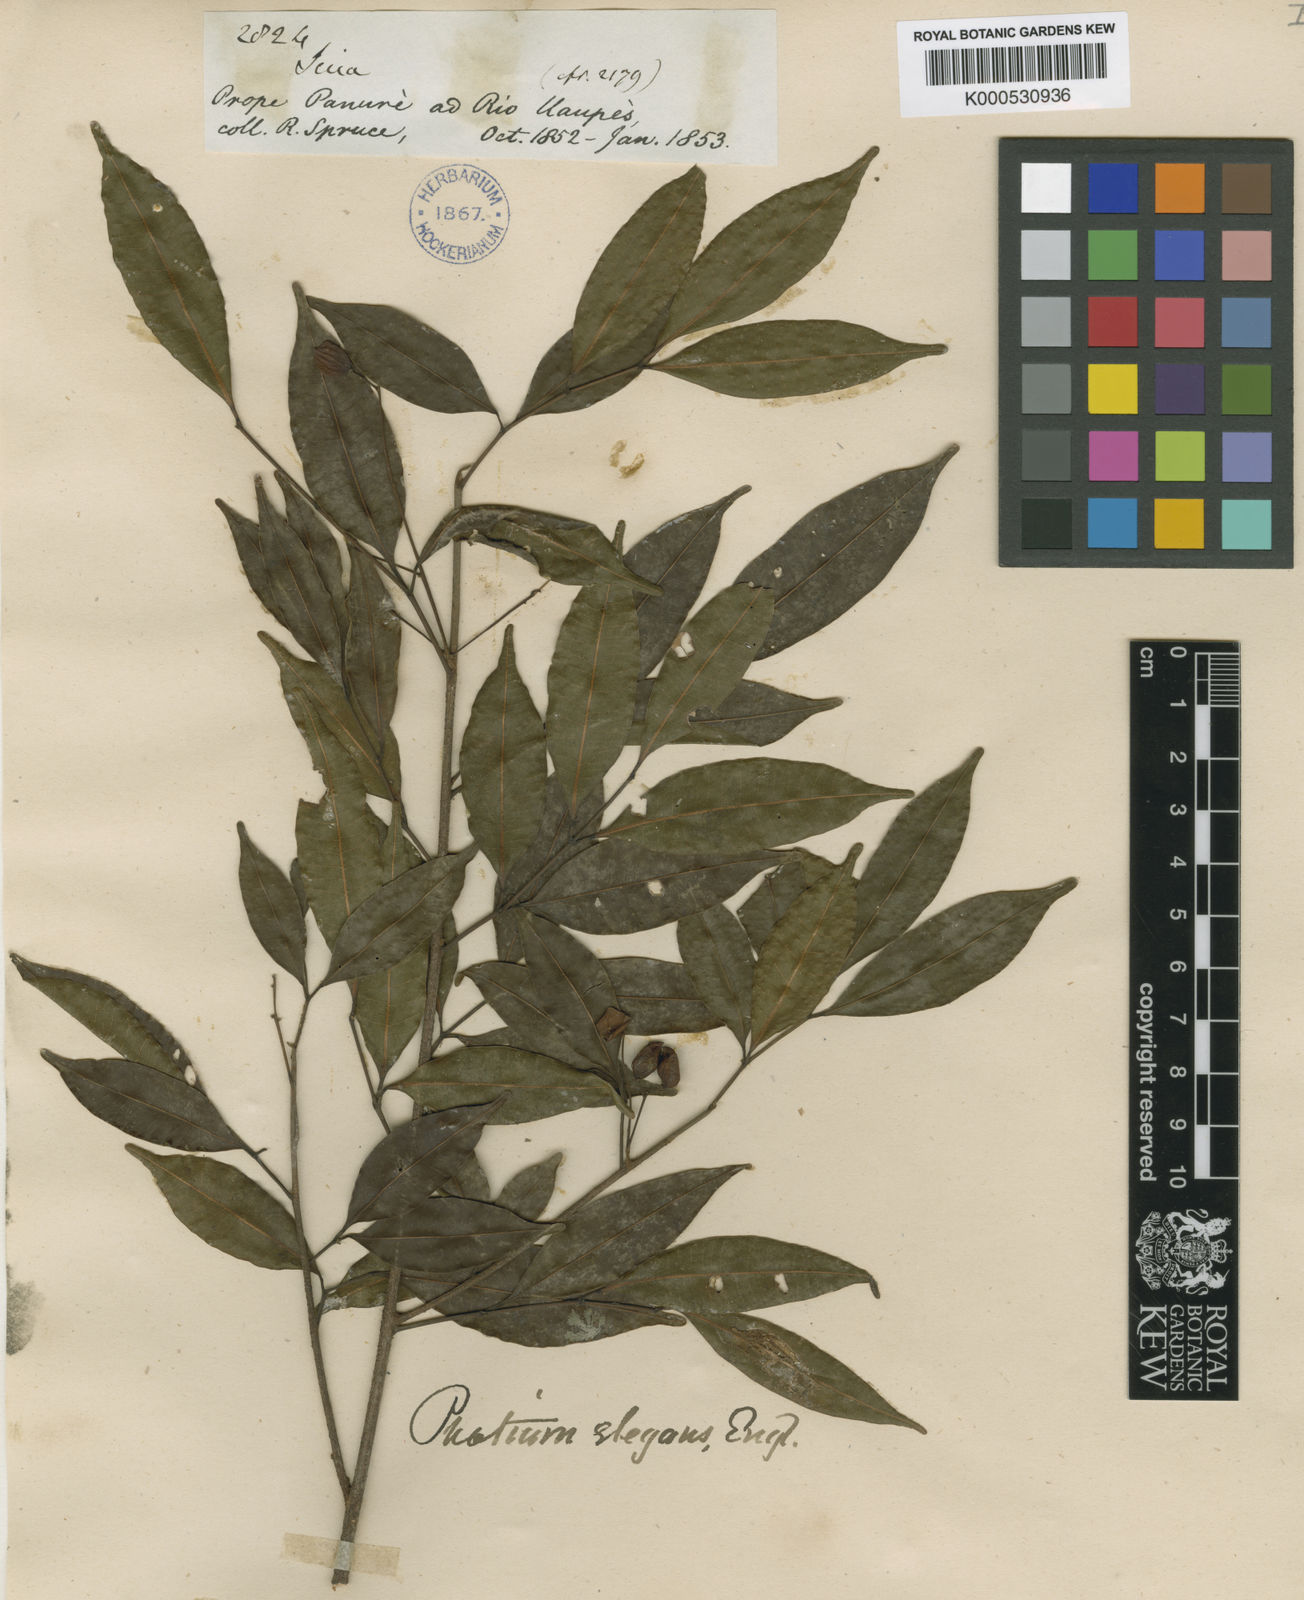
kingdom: Plantae
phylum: Tracheophyta
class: Magnoliopsida
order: Sapindales
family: Burseraceae
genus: Protium
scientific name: Protium elegans
